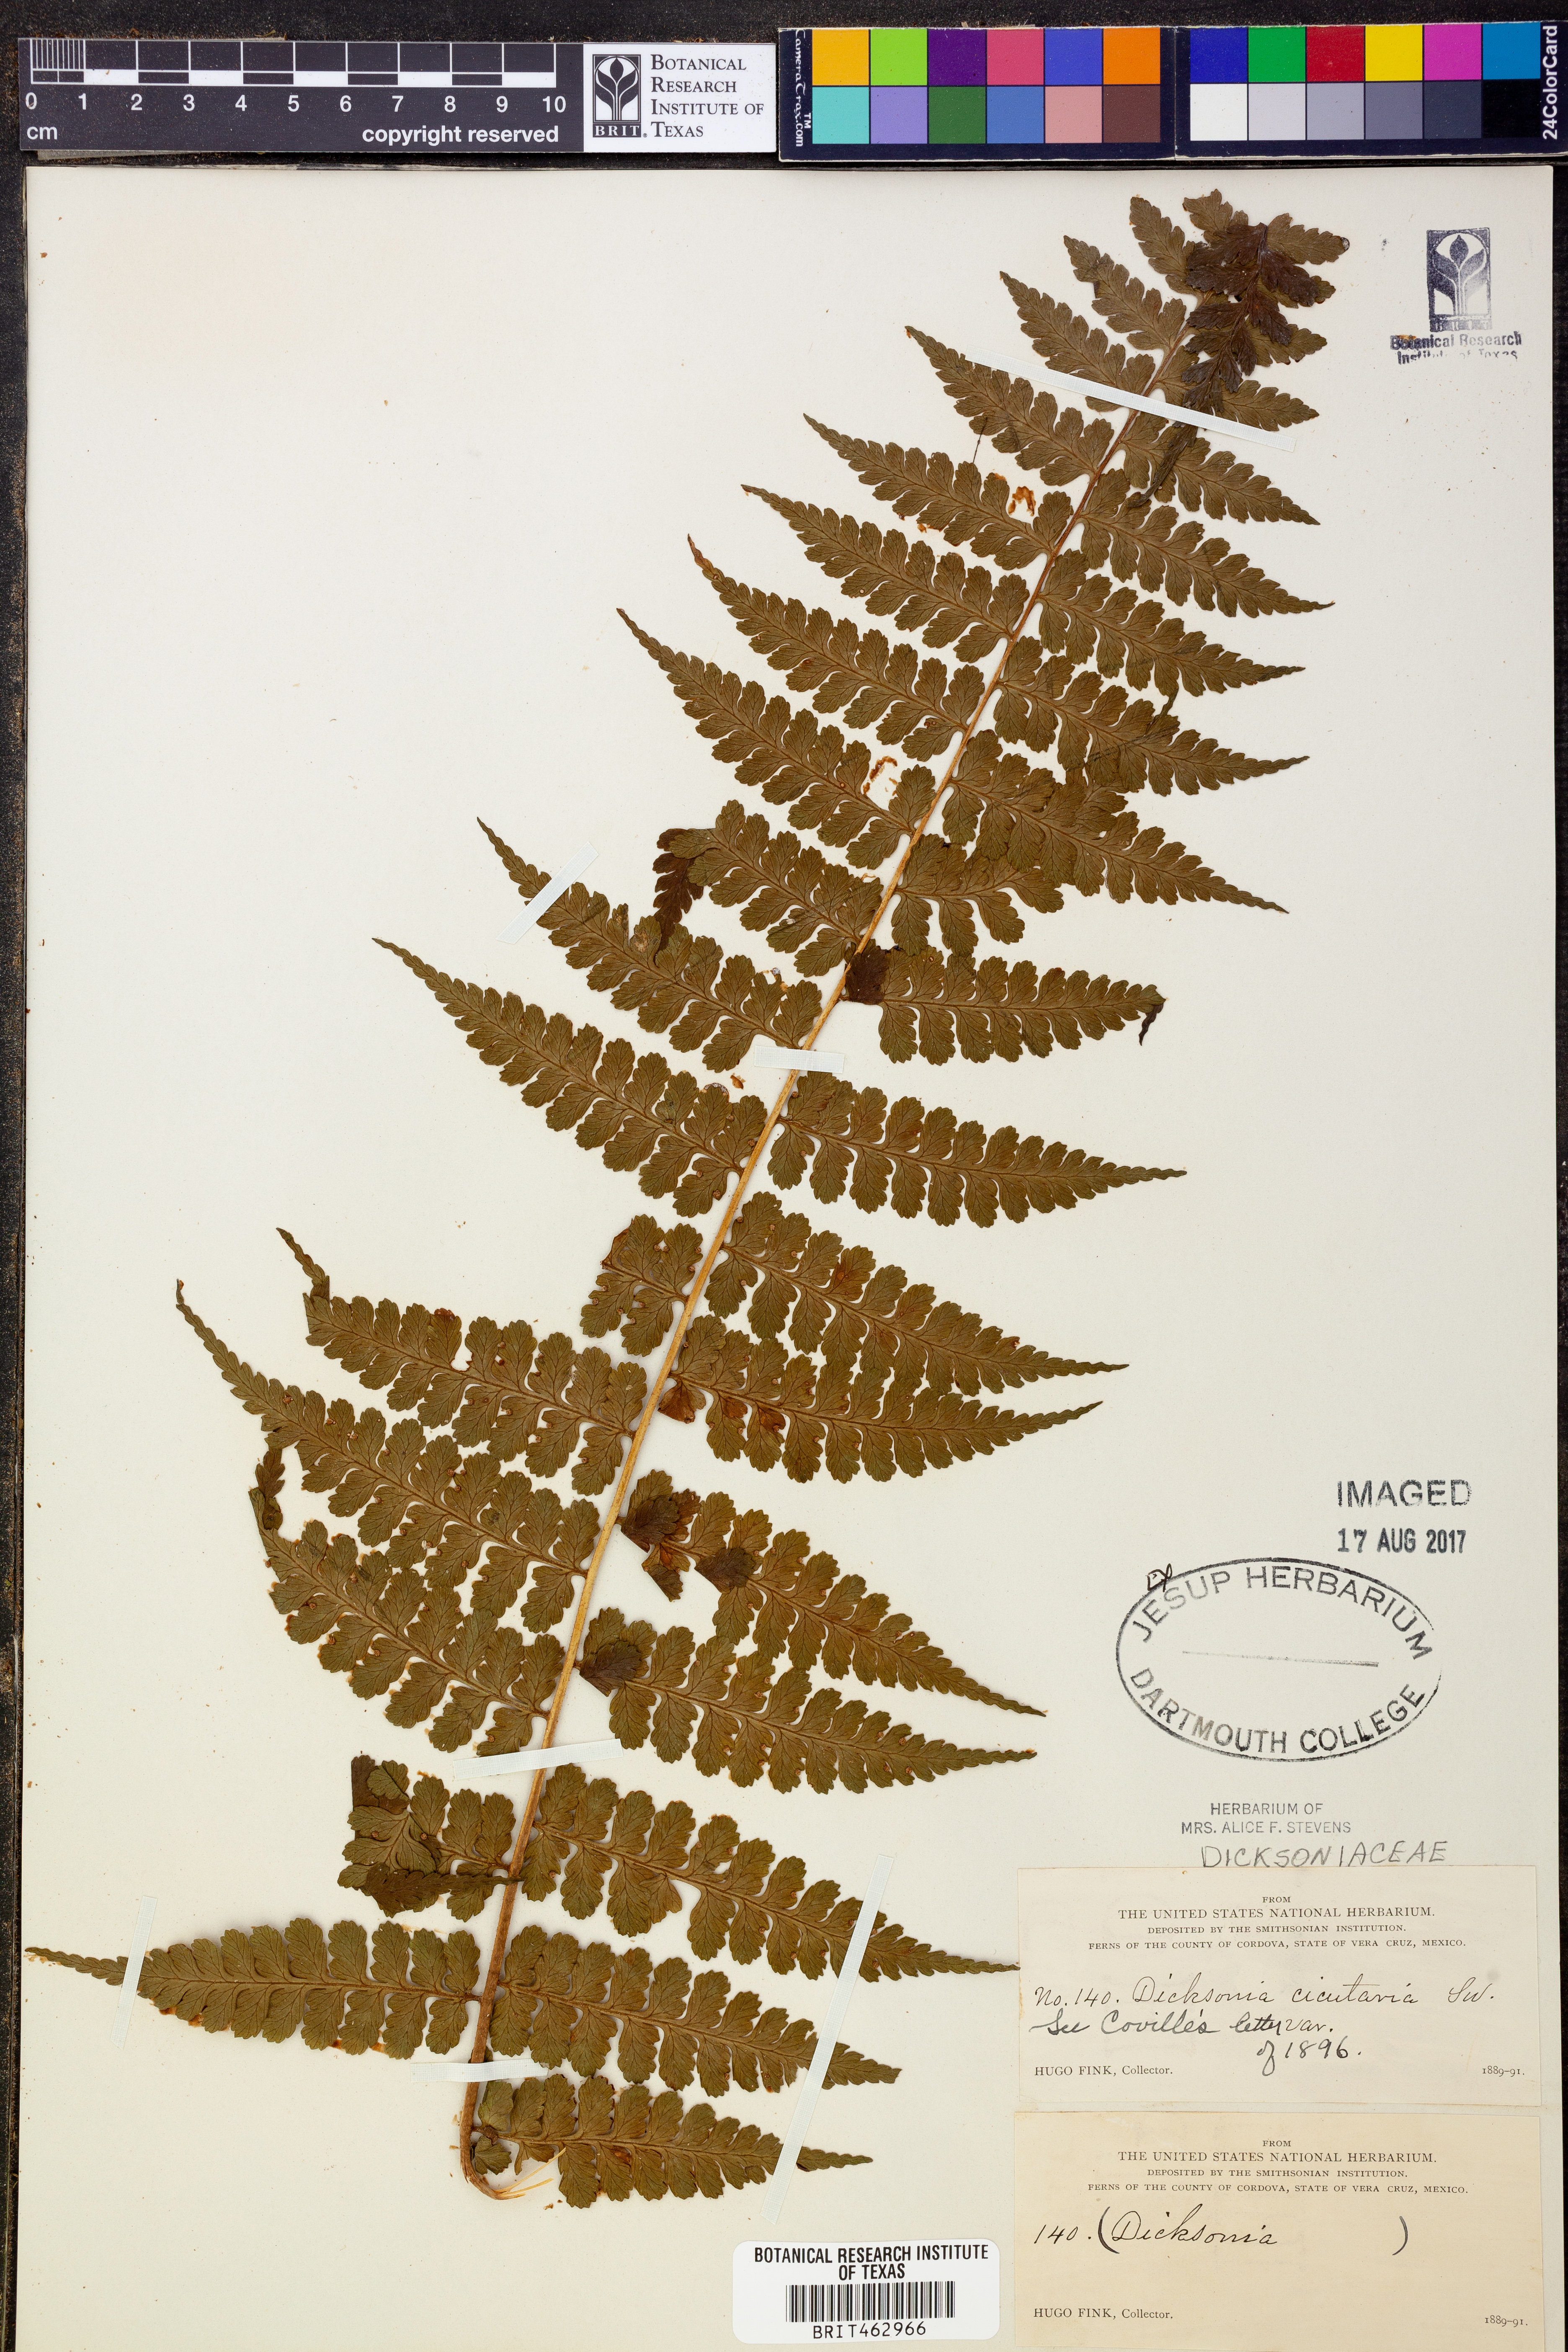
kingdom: Plantae
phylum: Tracheophyta
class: Polypodiopsida
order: Polypodiales
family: Dennstaedtiaceae
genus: Dennstaedtia
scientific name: Dennstaedtia cicutaria
